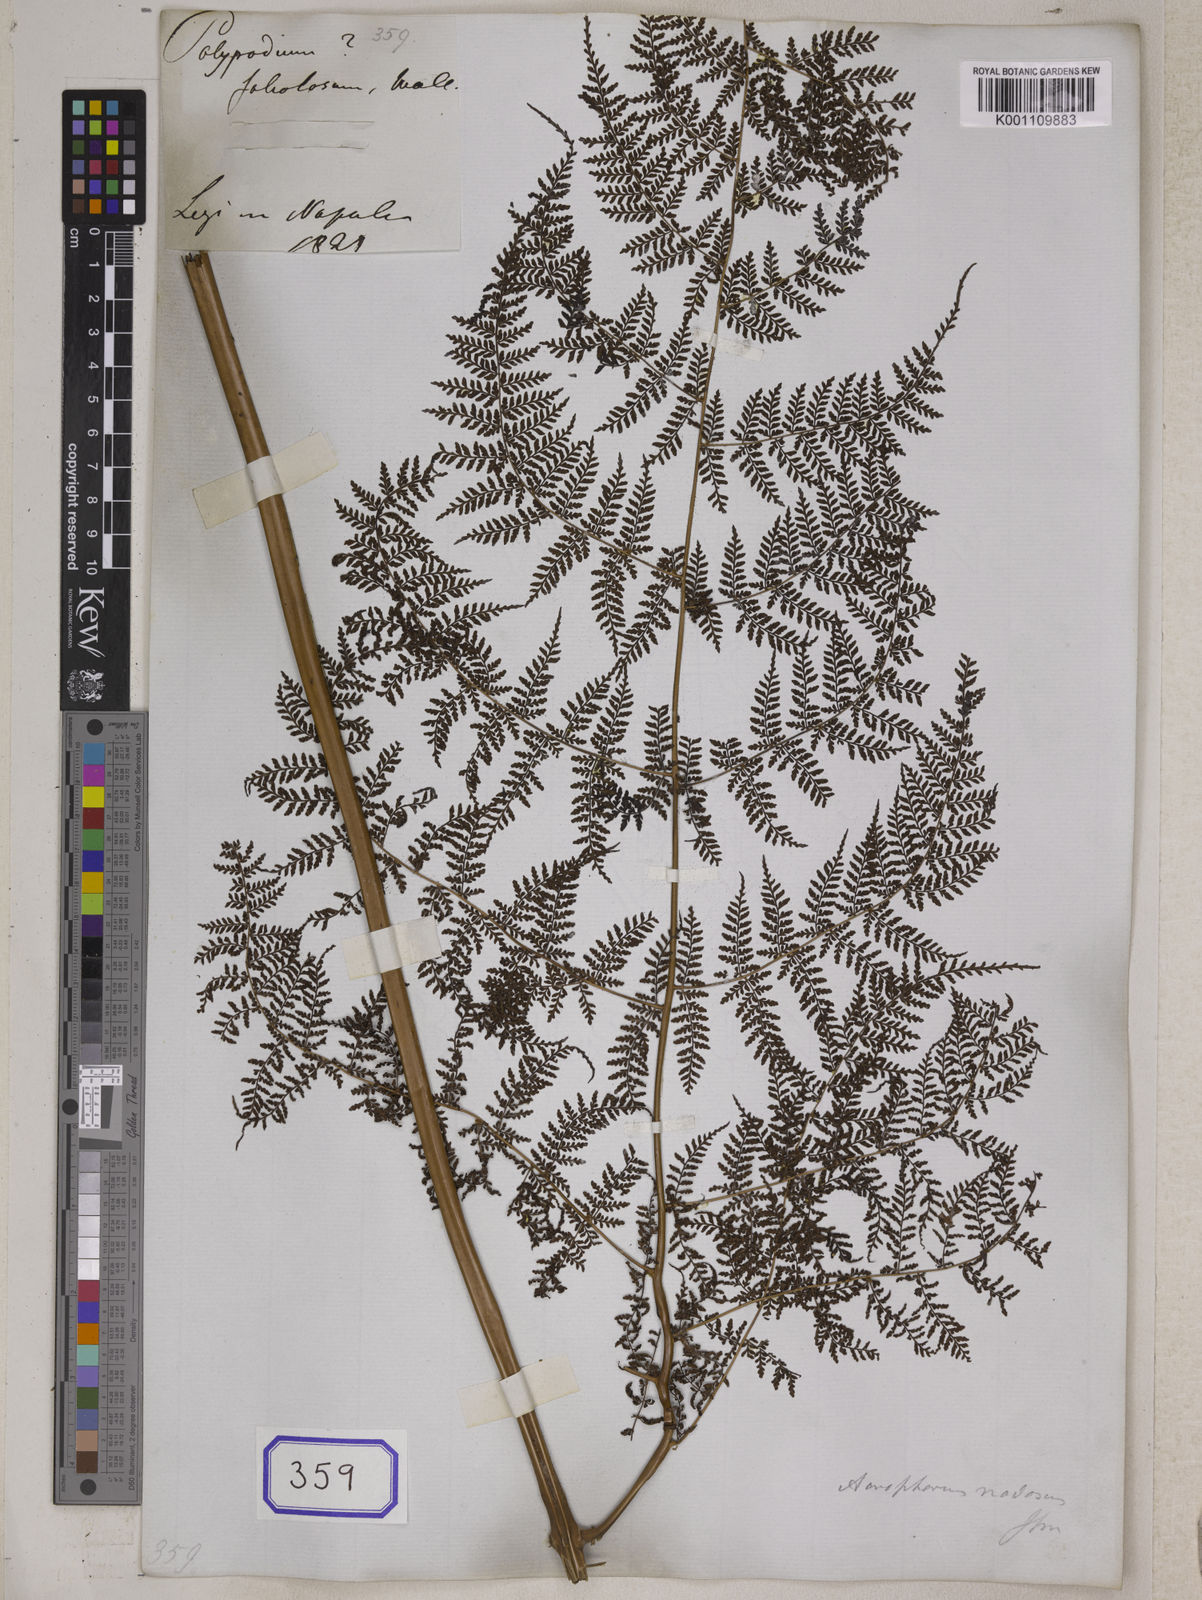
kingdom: Plantae
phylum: Tracheophyta
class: Polypodiopsida
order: Polypodiales
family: Athyriaceae
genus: Athyrium
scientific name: Athyrium foliolosum
